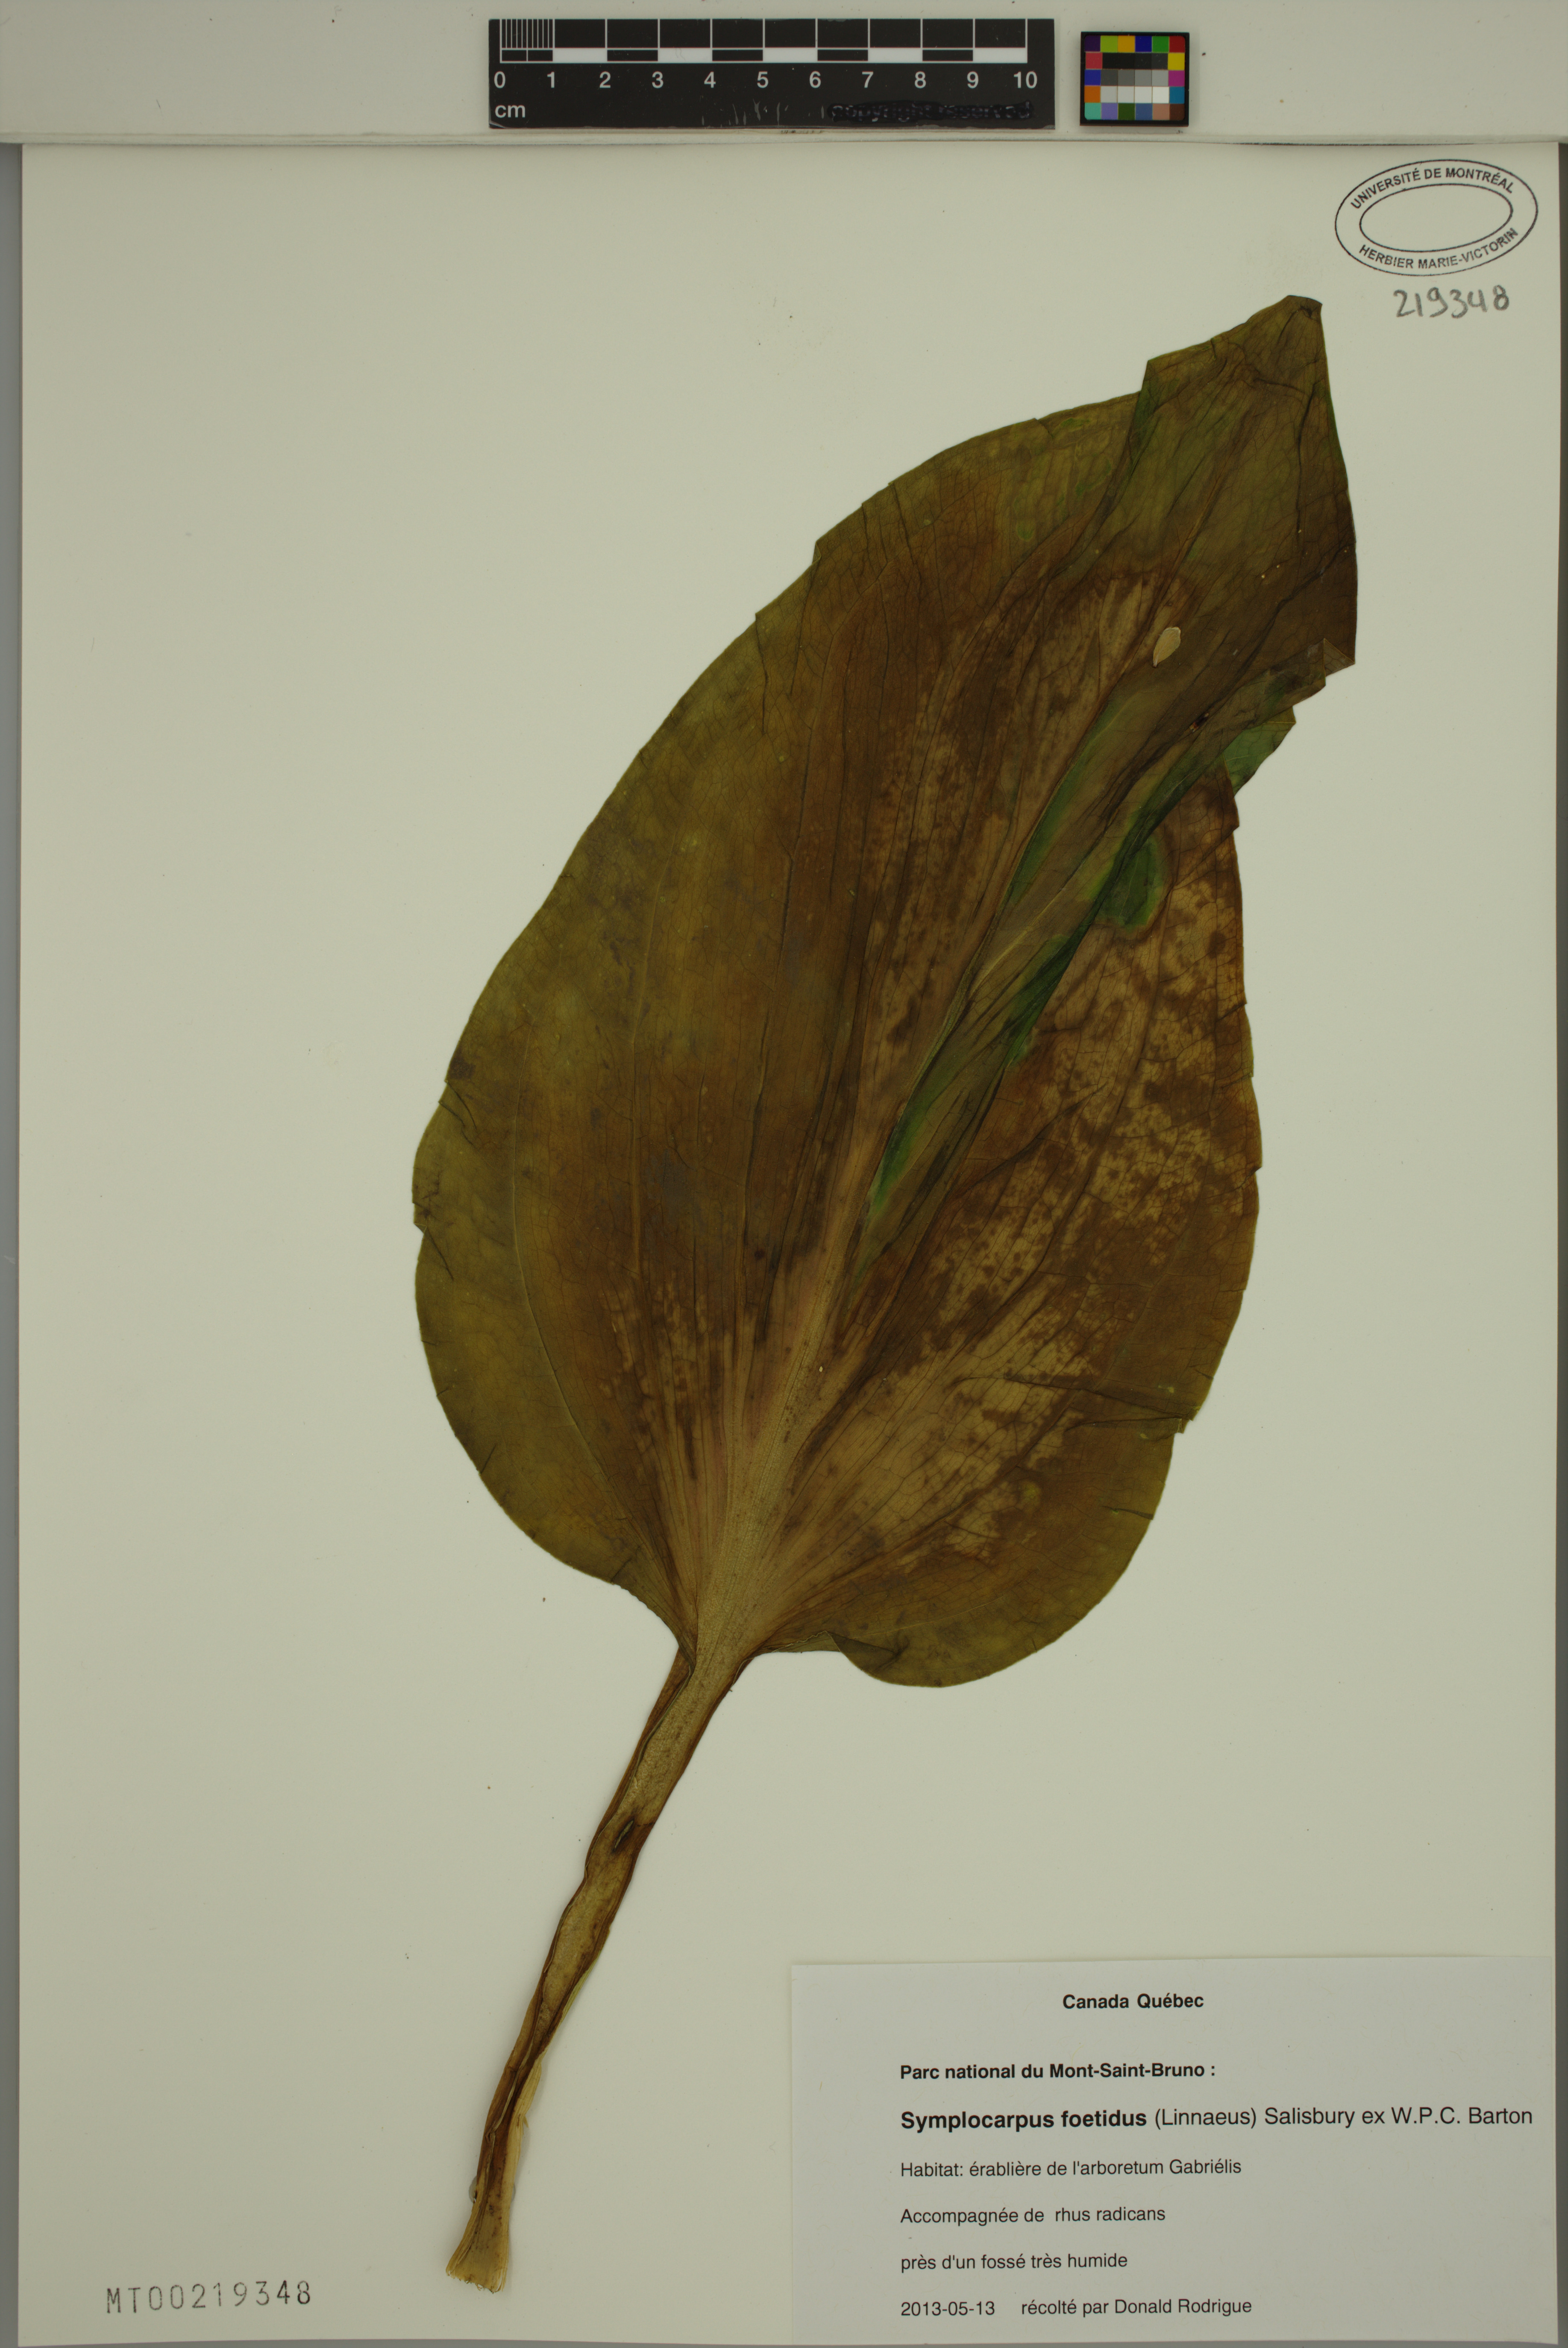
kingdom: Plantae
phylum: Tracheophyta
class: Liliopsida
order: Alismatales
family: Araceae
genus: Symplocarpus
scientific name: Symplocarpus foetidus
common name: Eastern skunk cabbage
